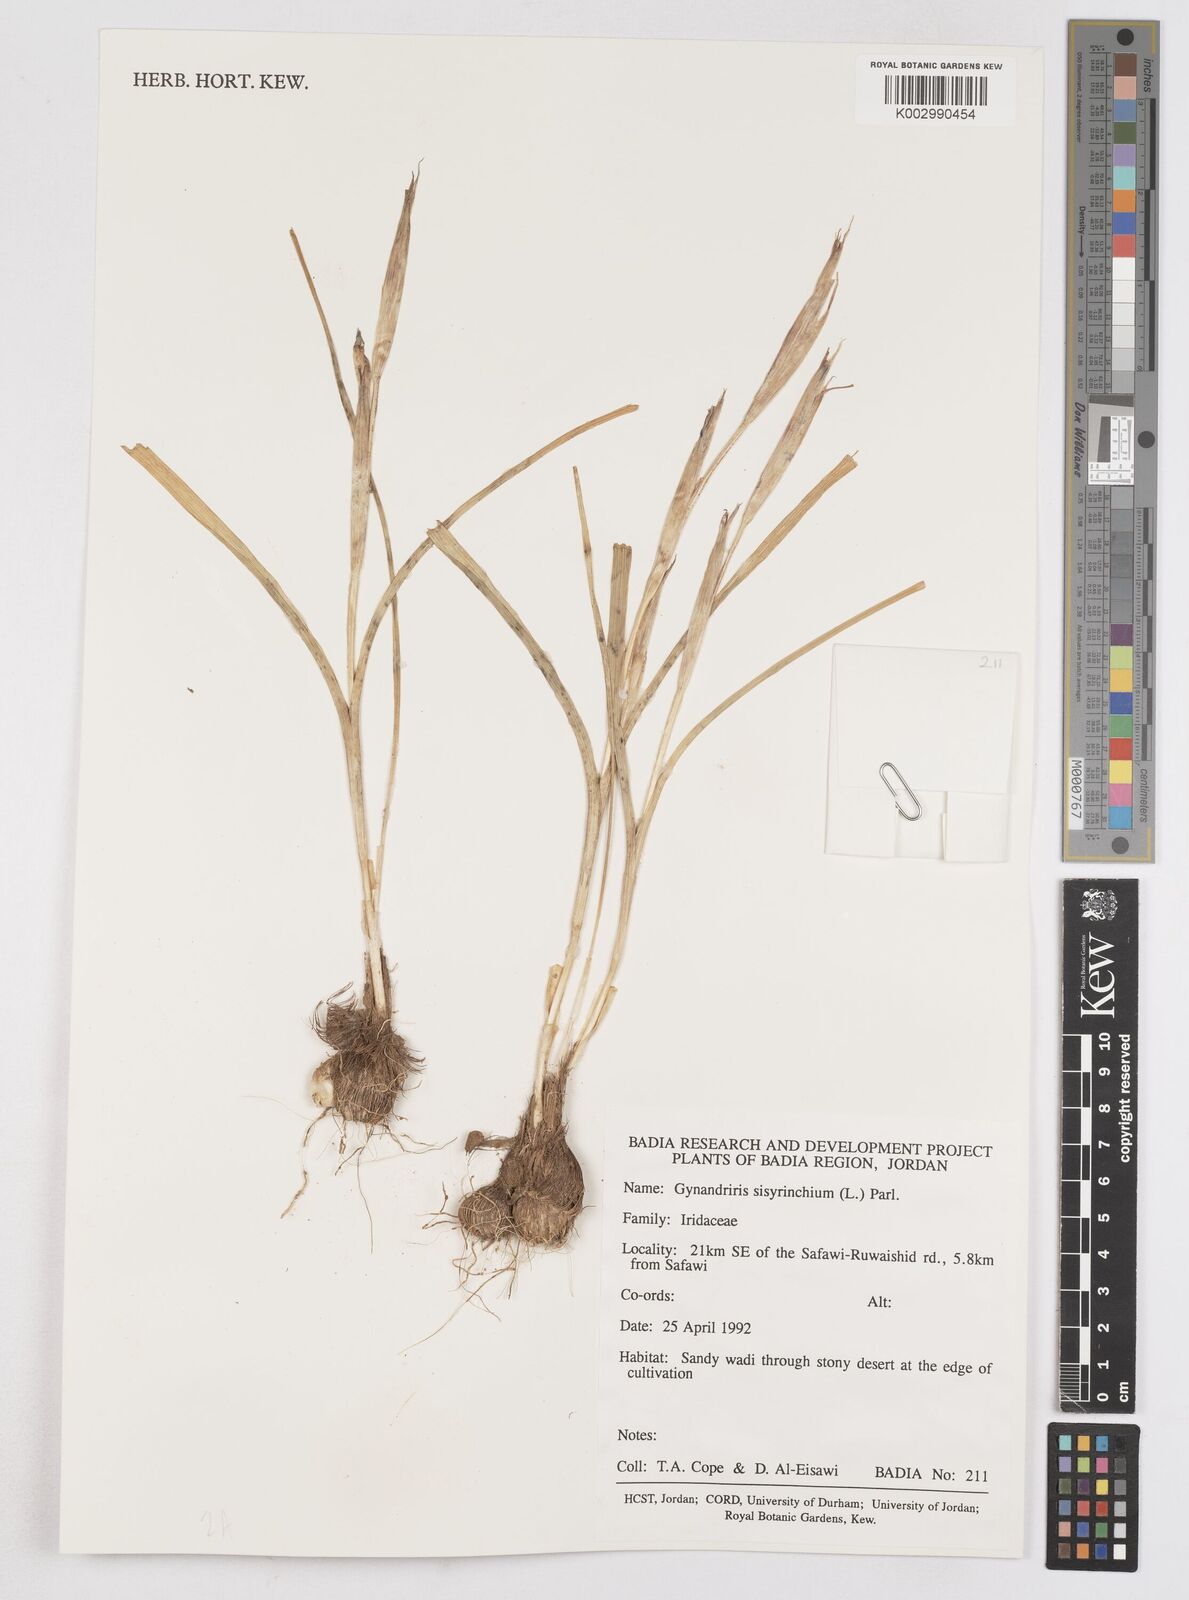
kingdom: Plantae
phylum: Tracheophyta
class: Liliopsida
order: Asparagales
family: Iridaceae
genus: Moraea
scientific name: Moraea sisyrinchium
